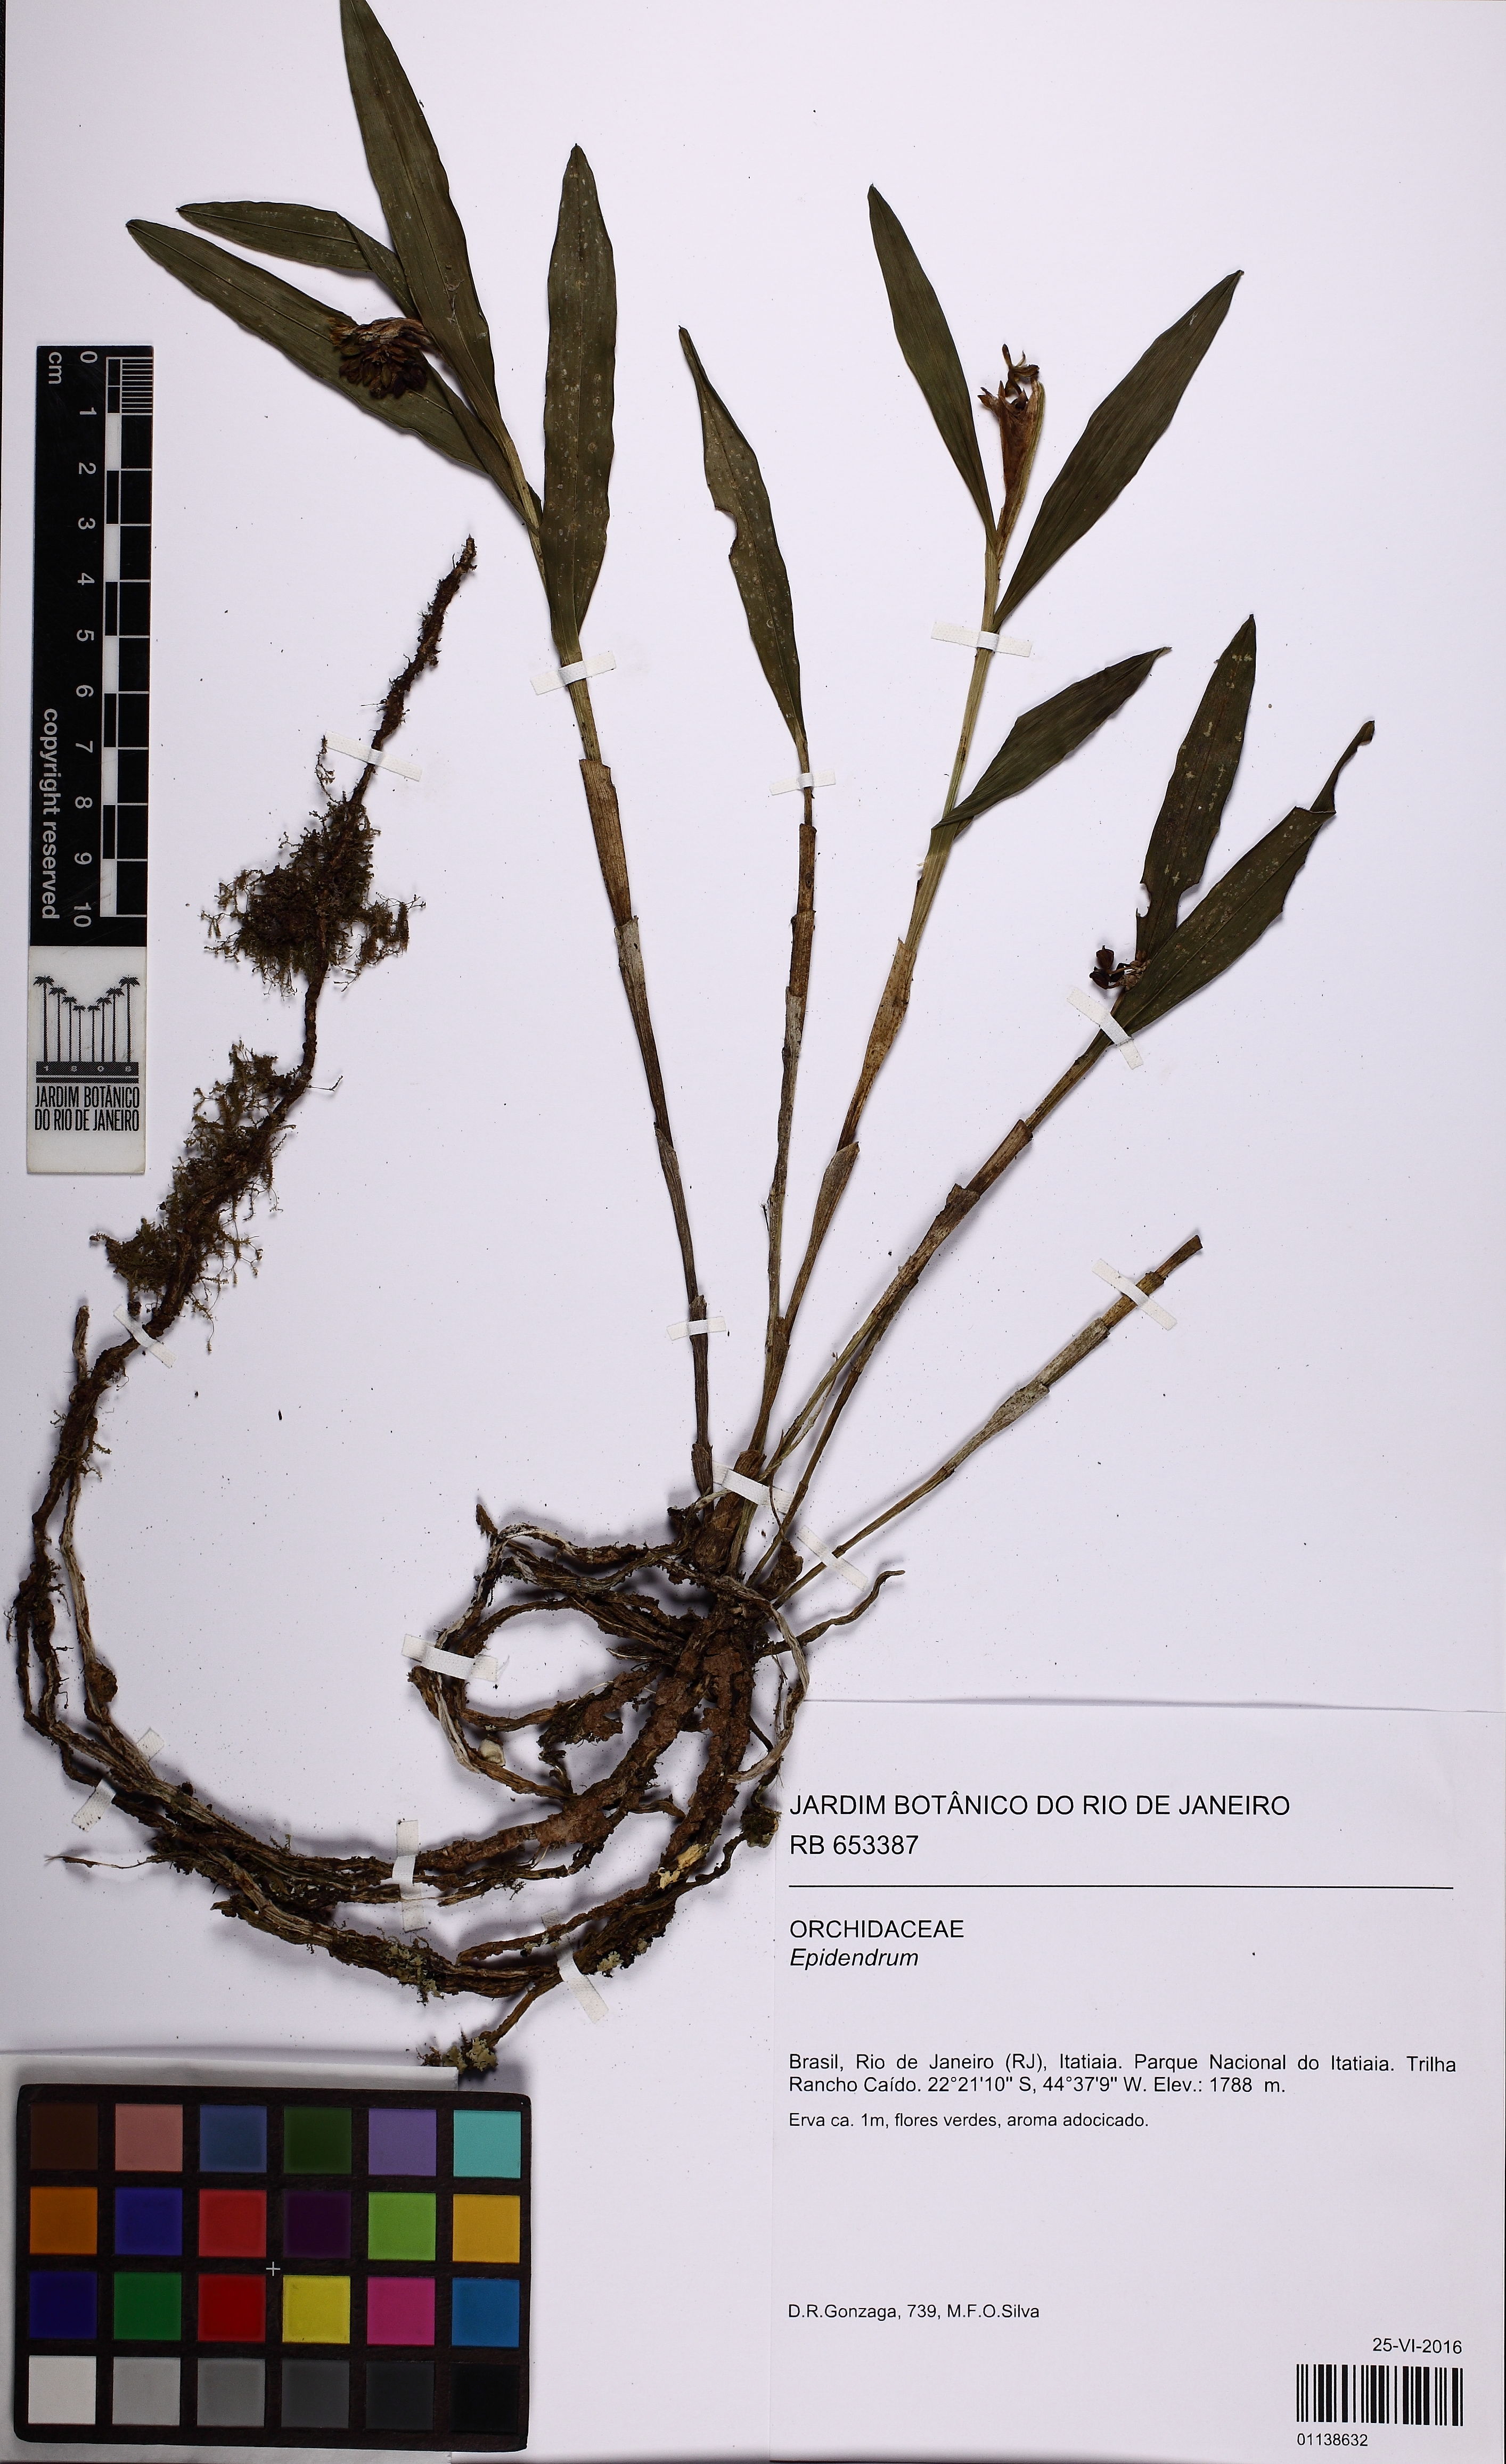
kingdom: Plantae
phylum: Tracheophyta
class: Liliopsida
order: Asparagales
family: Orchidaceae
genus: Epidendrum
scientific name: Epidendrum
